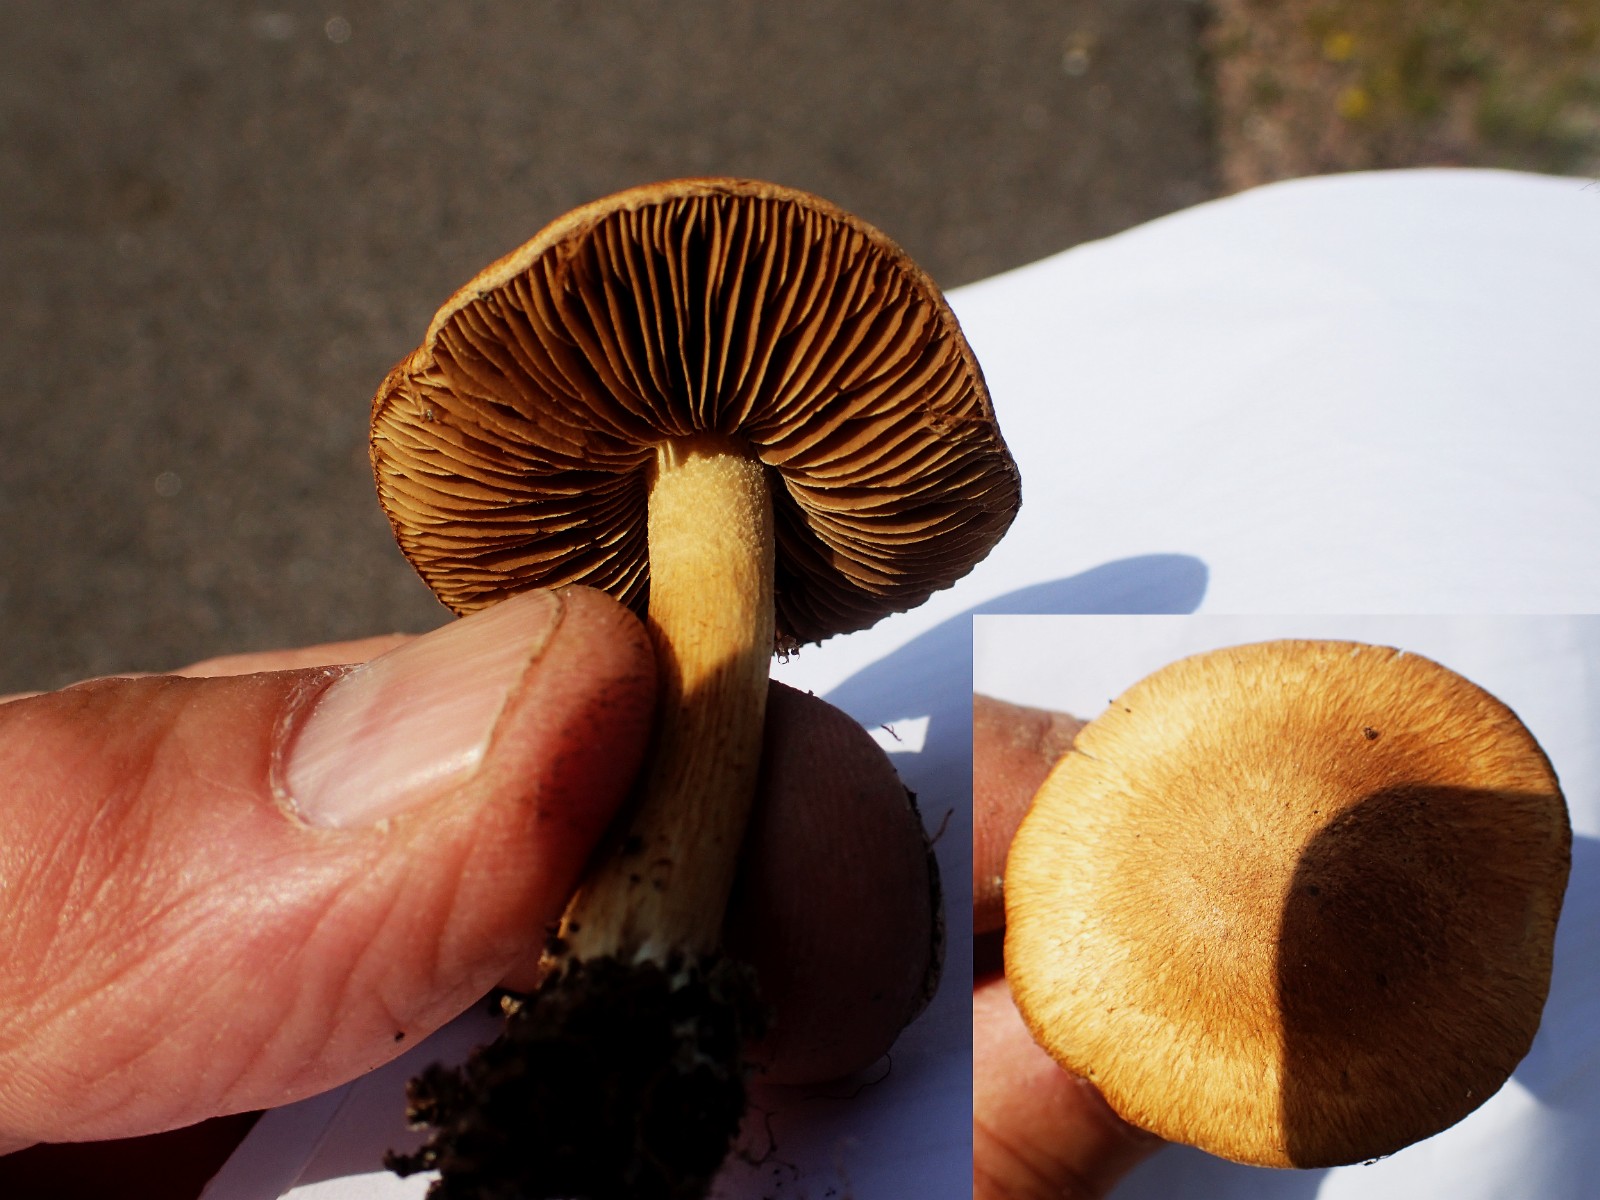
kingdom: Fungi
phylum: Basidiomycota
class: Agaricomycetes
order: Agaricales
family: Inocybaceae
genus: Mallocybe
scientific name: Mallocybe
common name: Trævlhat
